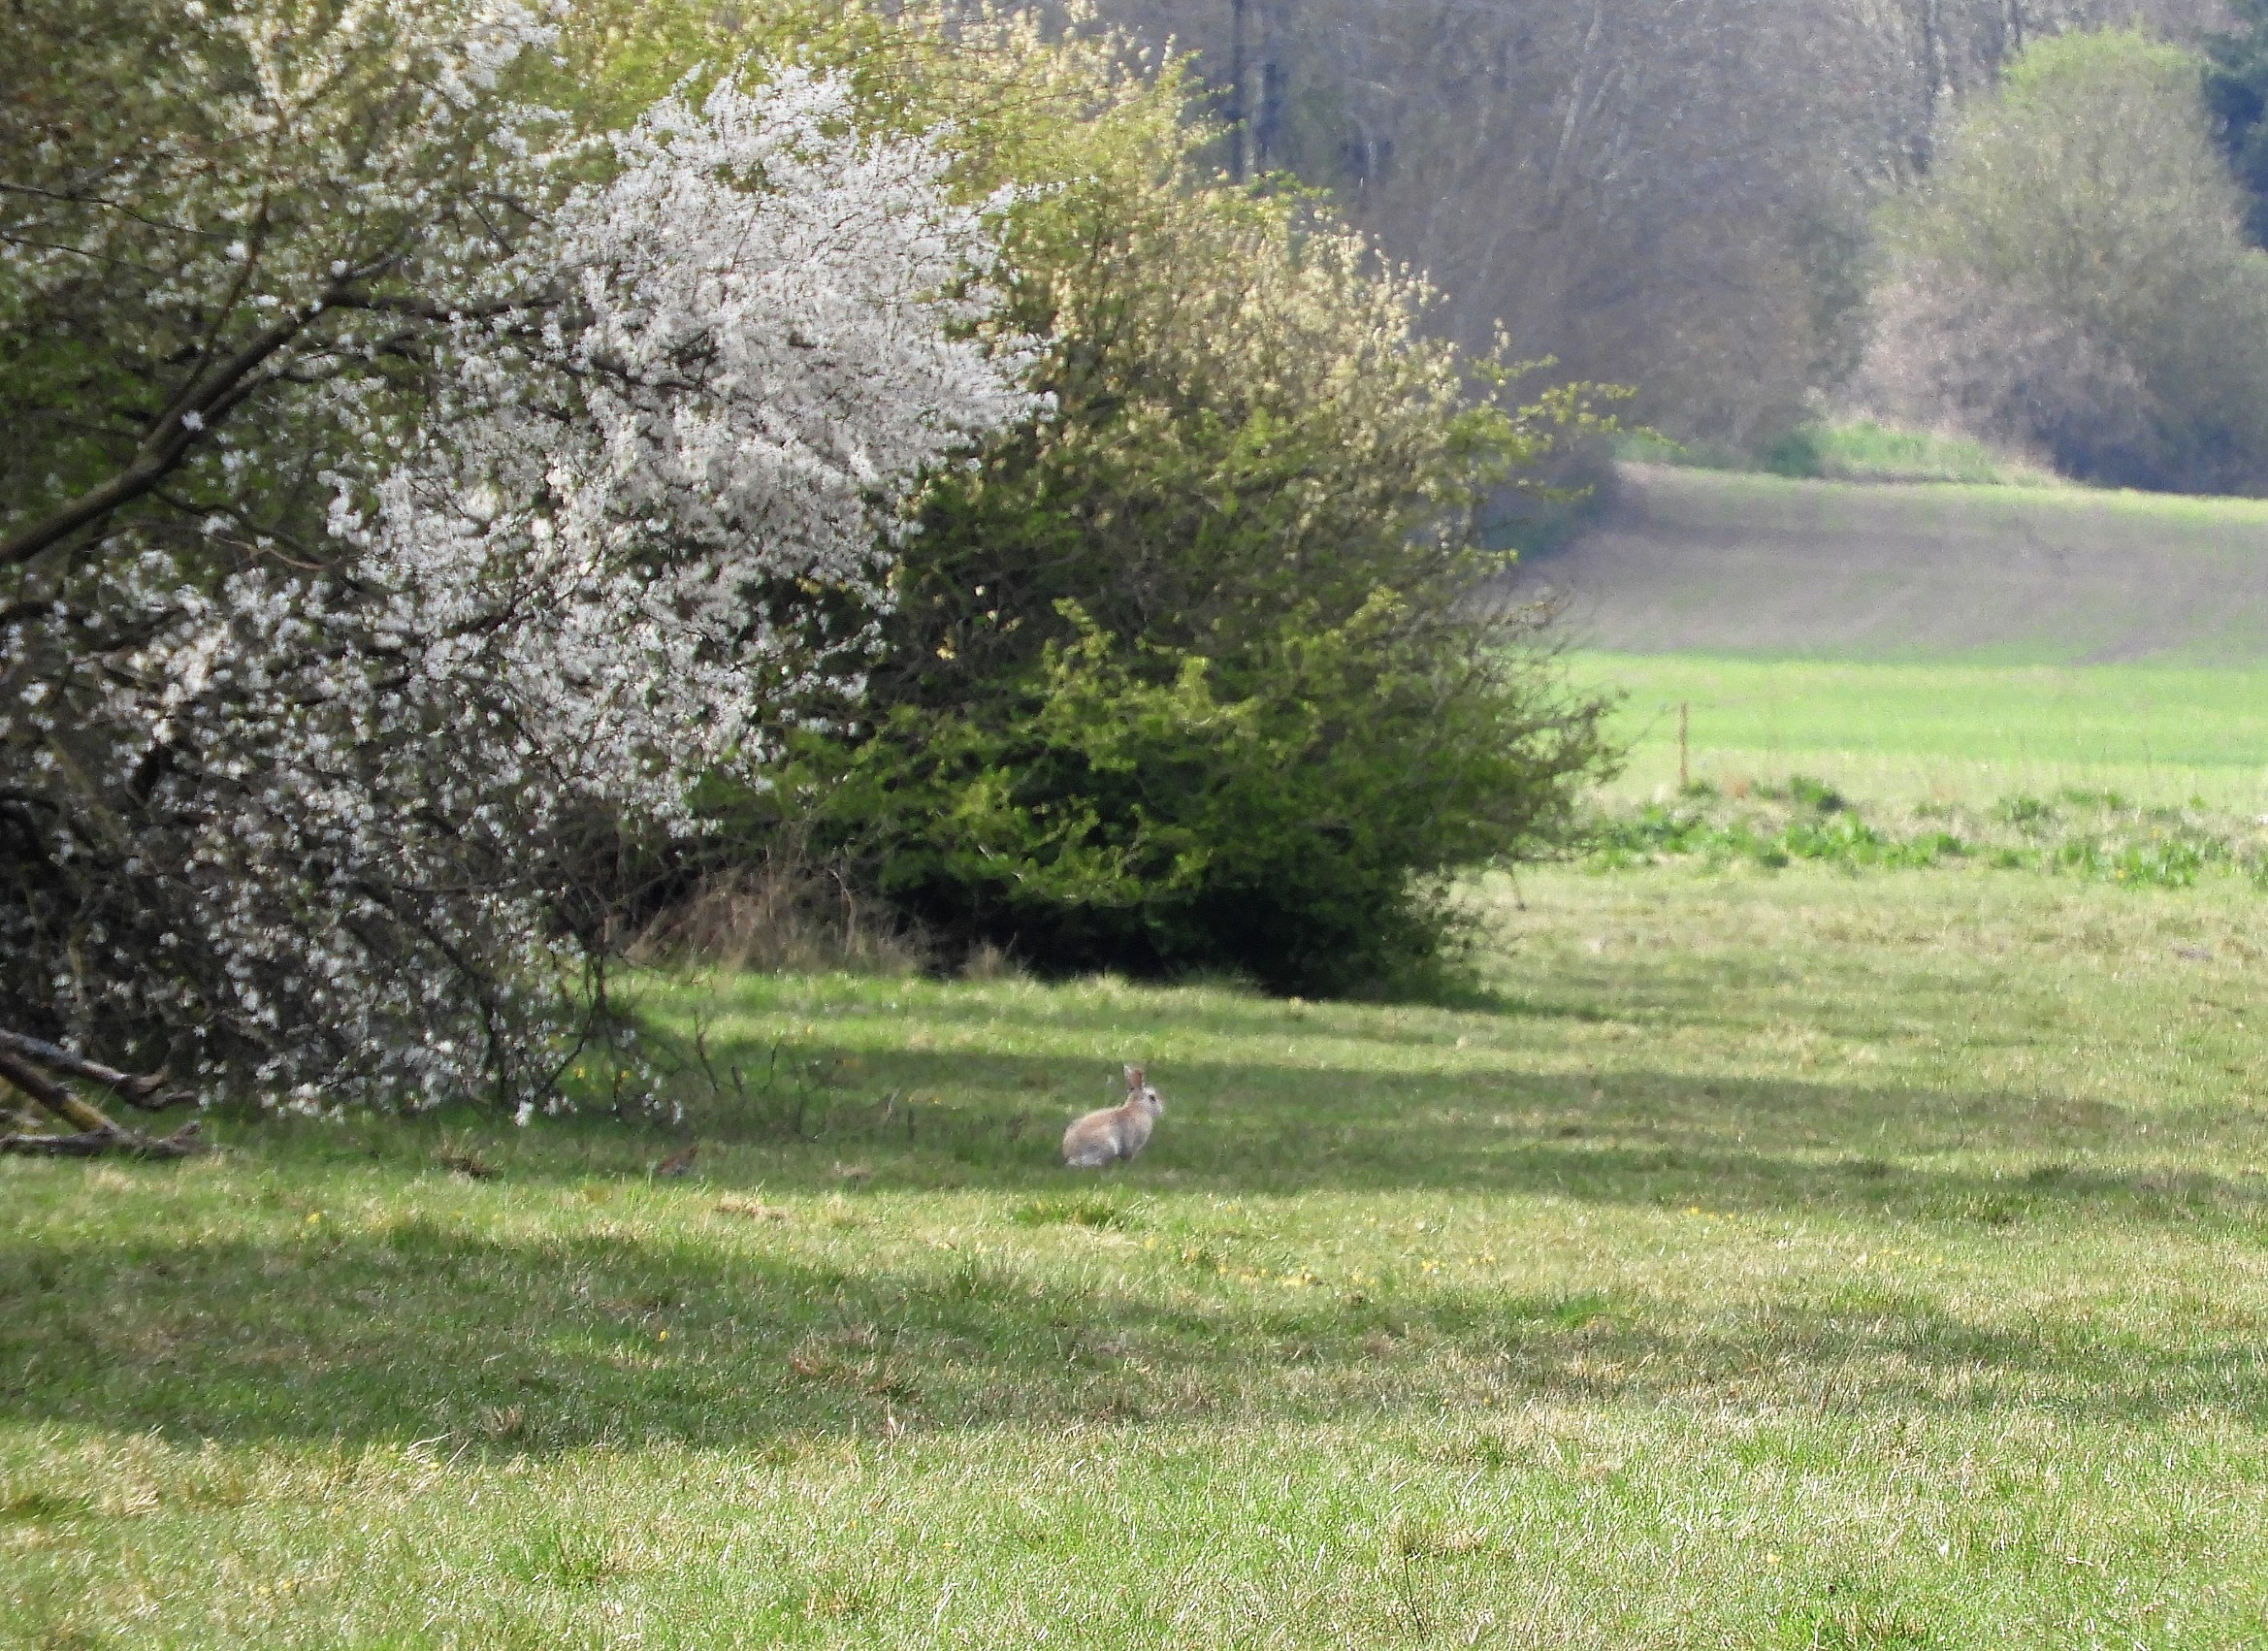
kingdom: Animalia
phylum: Chordata
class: Mammalia
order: Lagomorpha
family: Leporidae
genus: Lepus
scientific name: Lepus europaeus
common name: Hare
